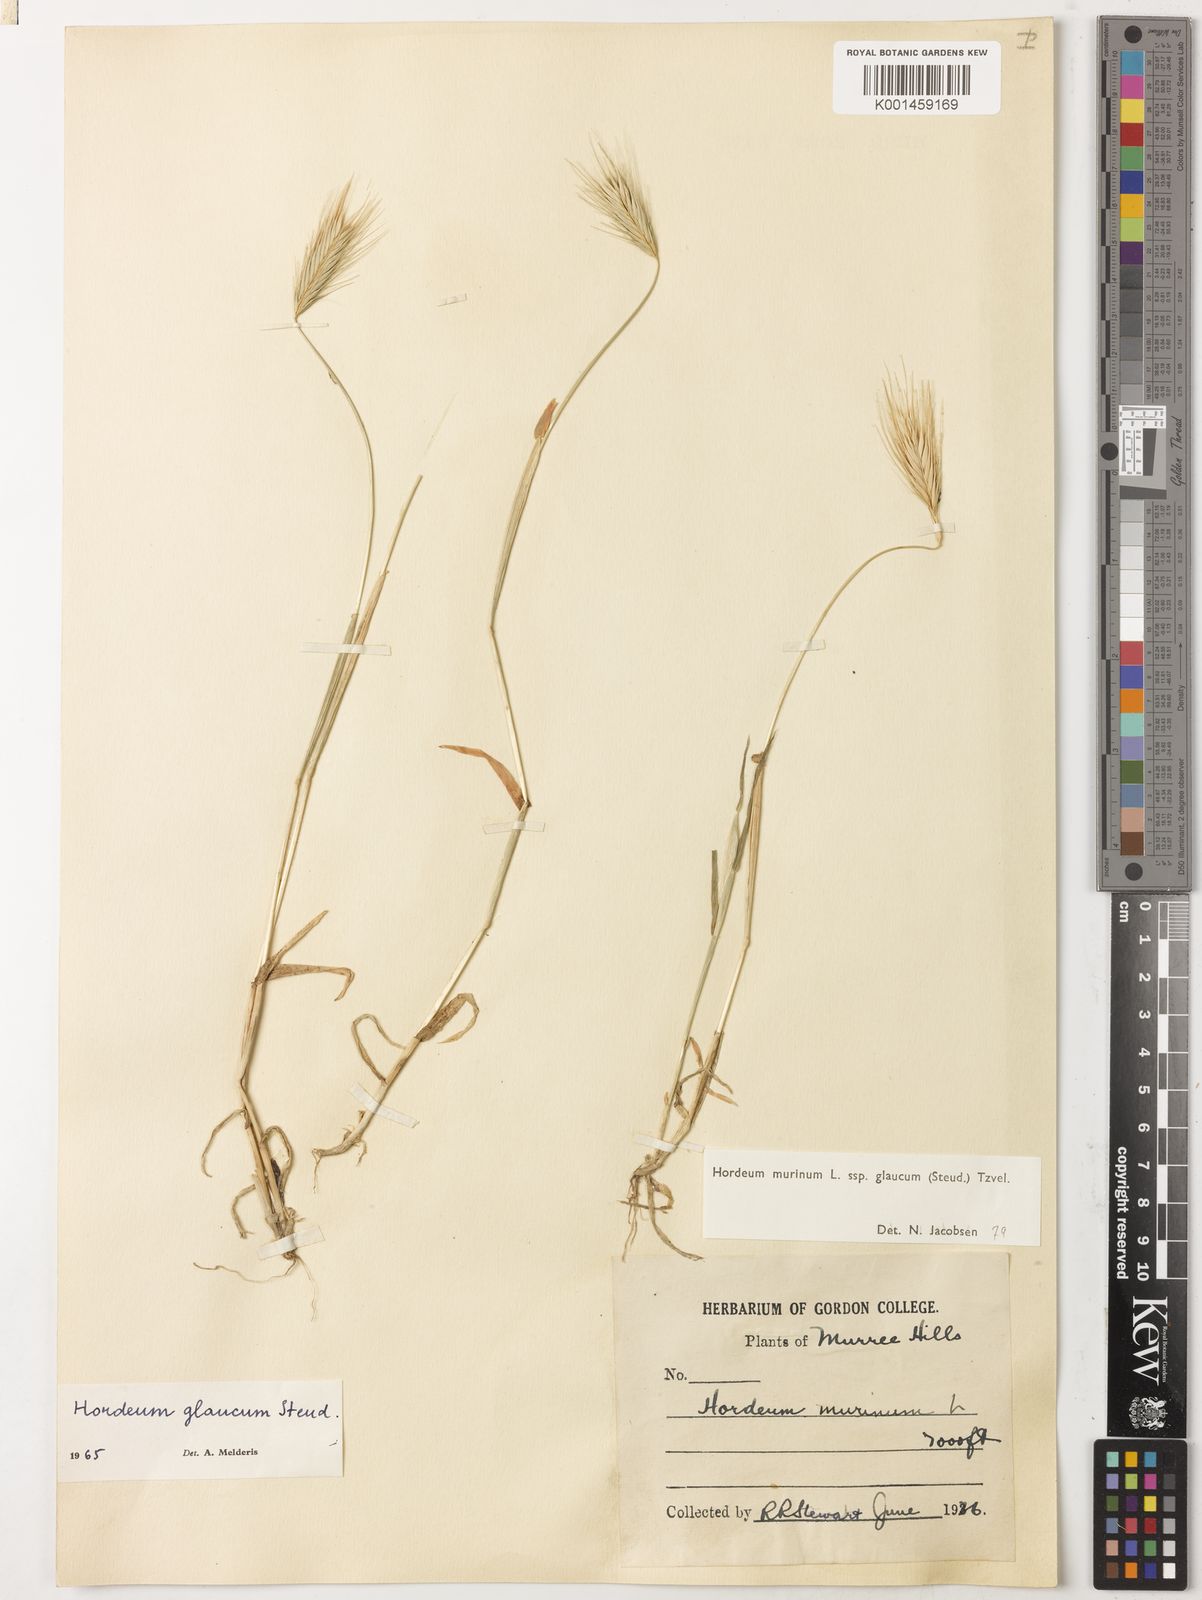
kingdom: Plantae
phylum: Tracheophyta
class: Liliopsida
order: Poales
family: Poaceae
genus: Hordeum
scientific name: Hordeum murinum
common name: Wall barley
